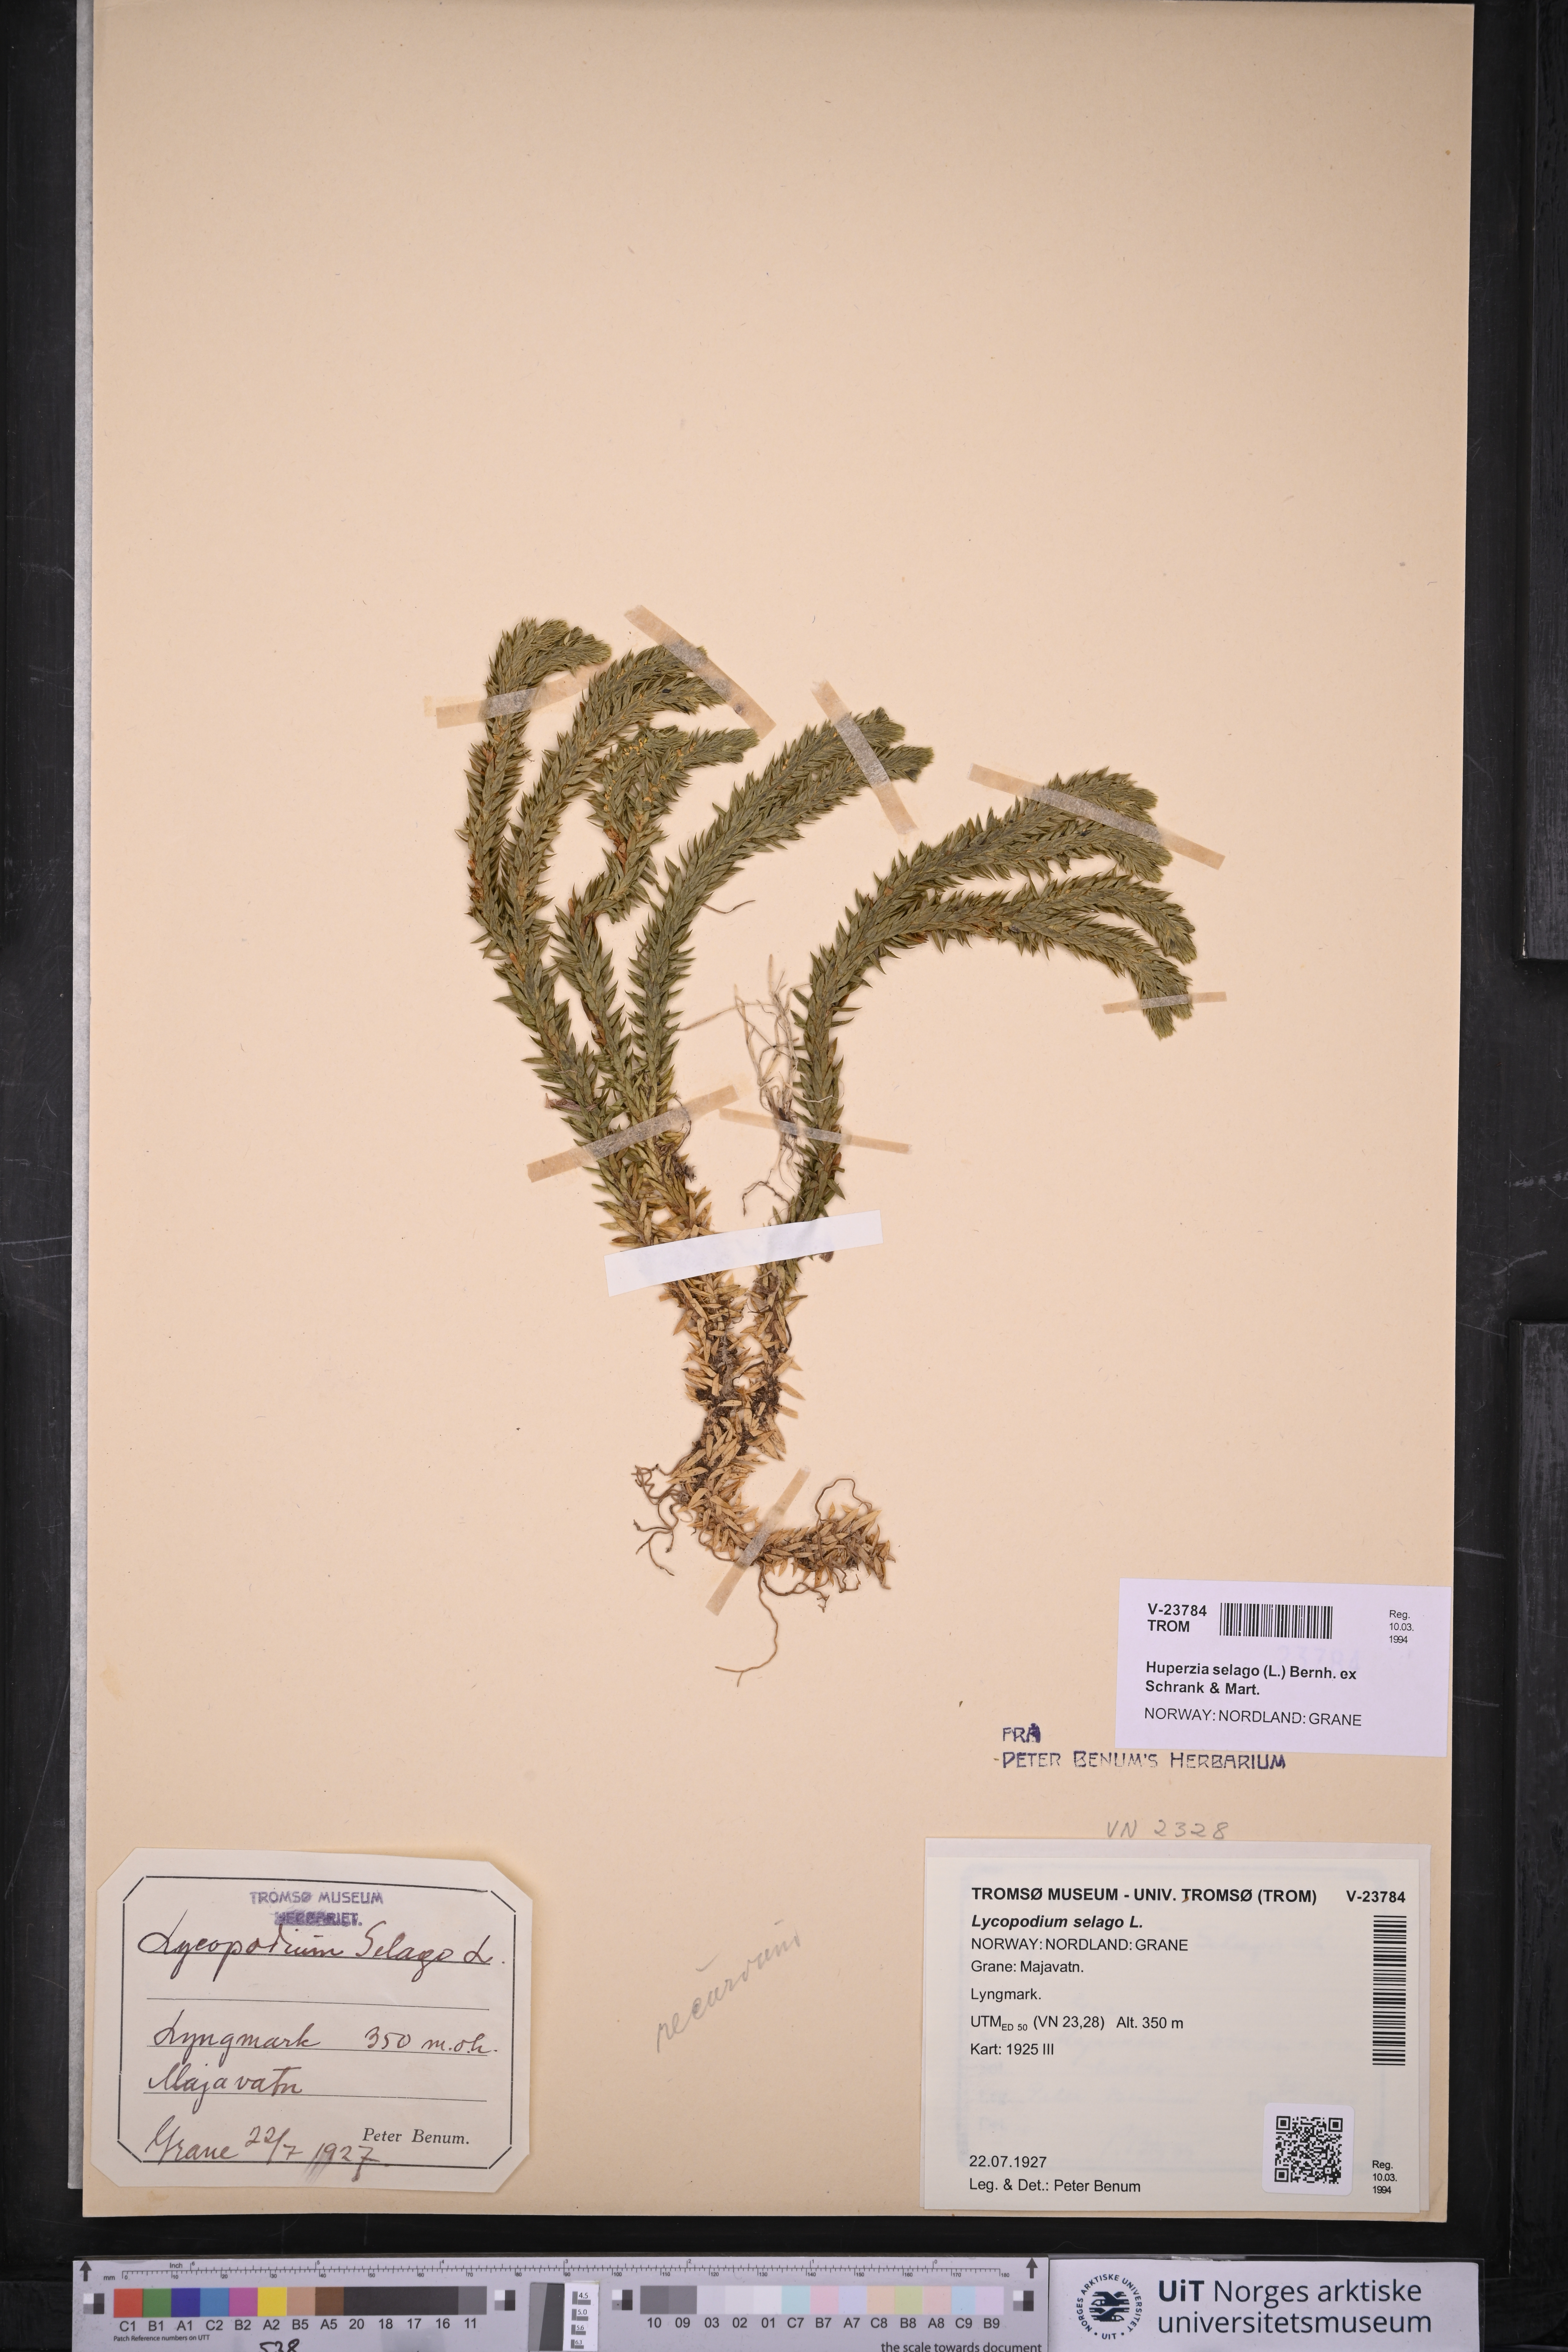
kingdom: Plantae
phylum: Tracheophyta
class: Lycopodiopsida
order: Lycopodiales
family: Lycopodiaceae
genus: Huperzia
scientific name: Huperzia selago
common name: Northern firmoss
